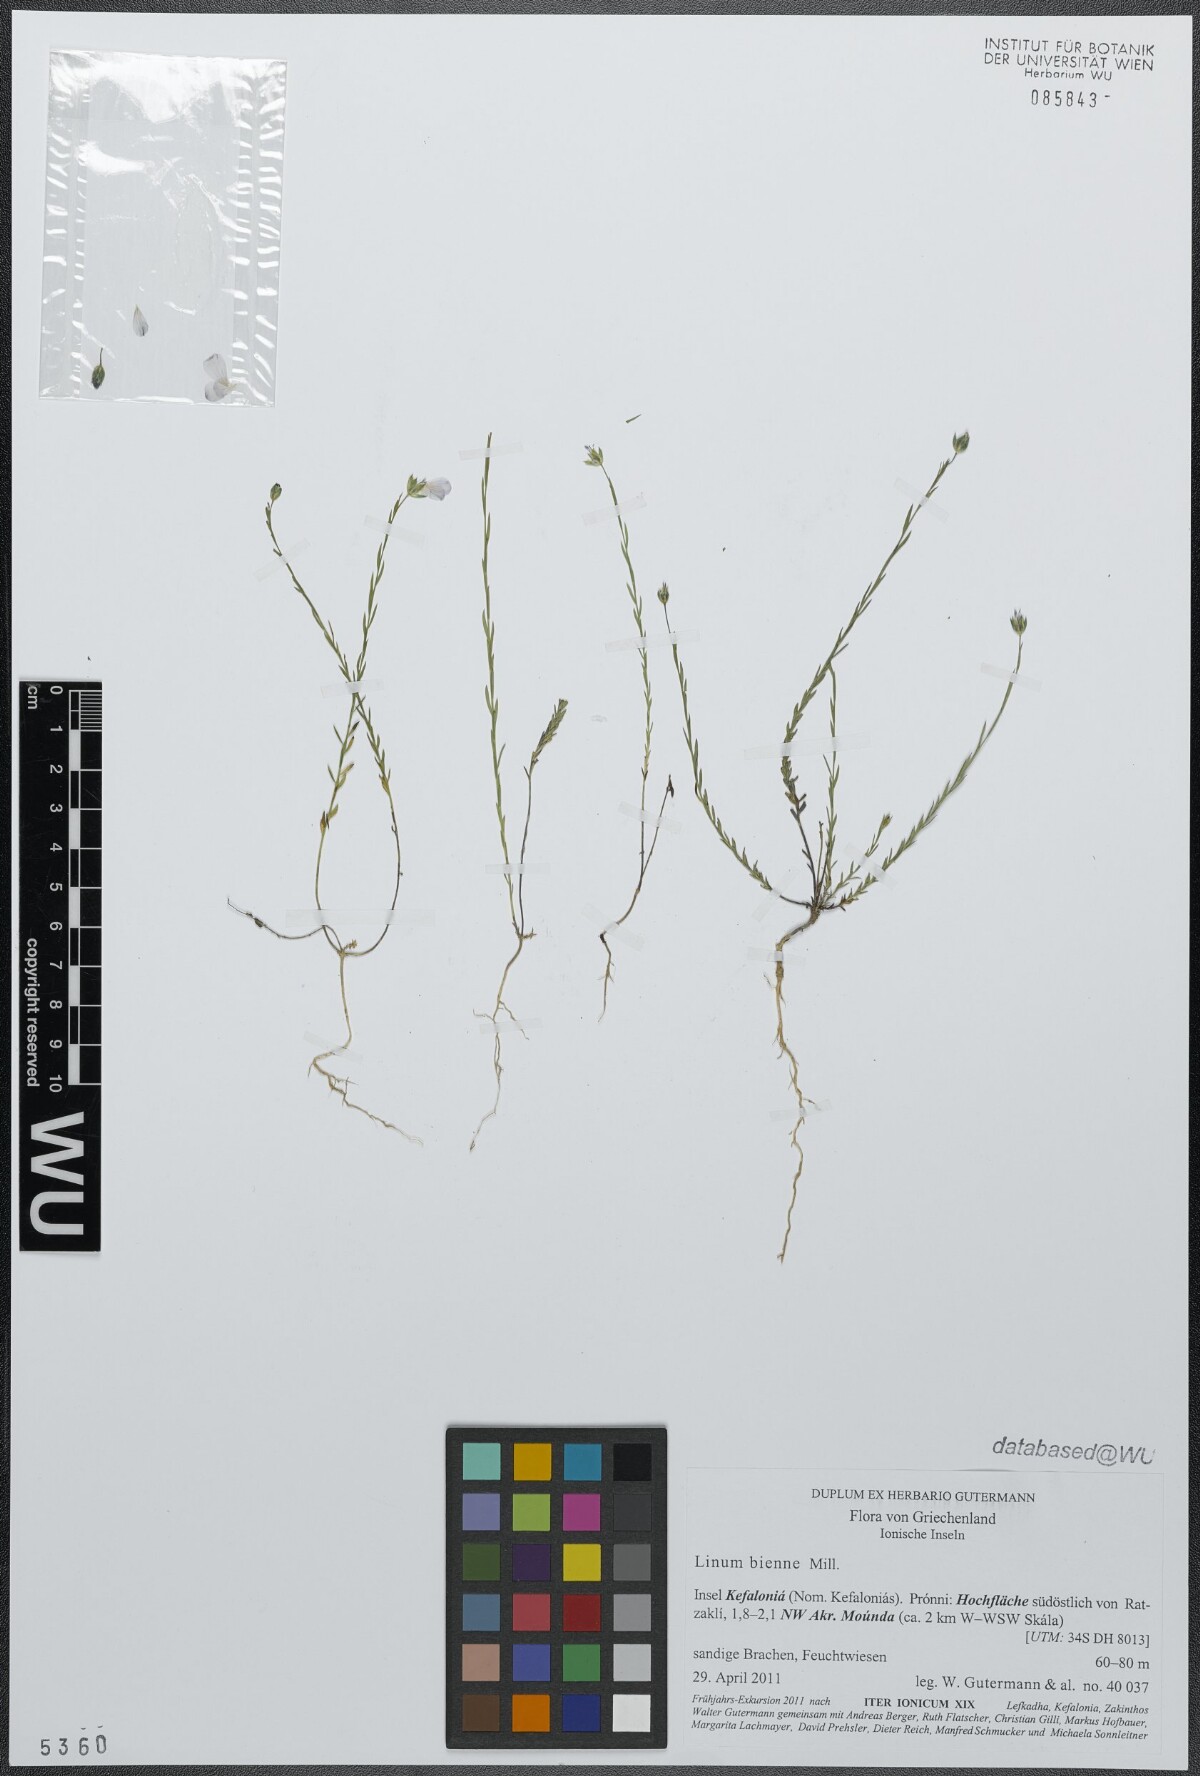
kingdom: Plantae
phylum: Tracheophyta
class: Magnoliopsida
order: Malpighiales
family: Linaceae
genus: Linum
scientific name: Linum bienne
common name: Pale flax
